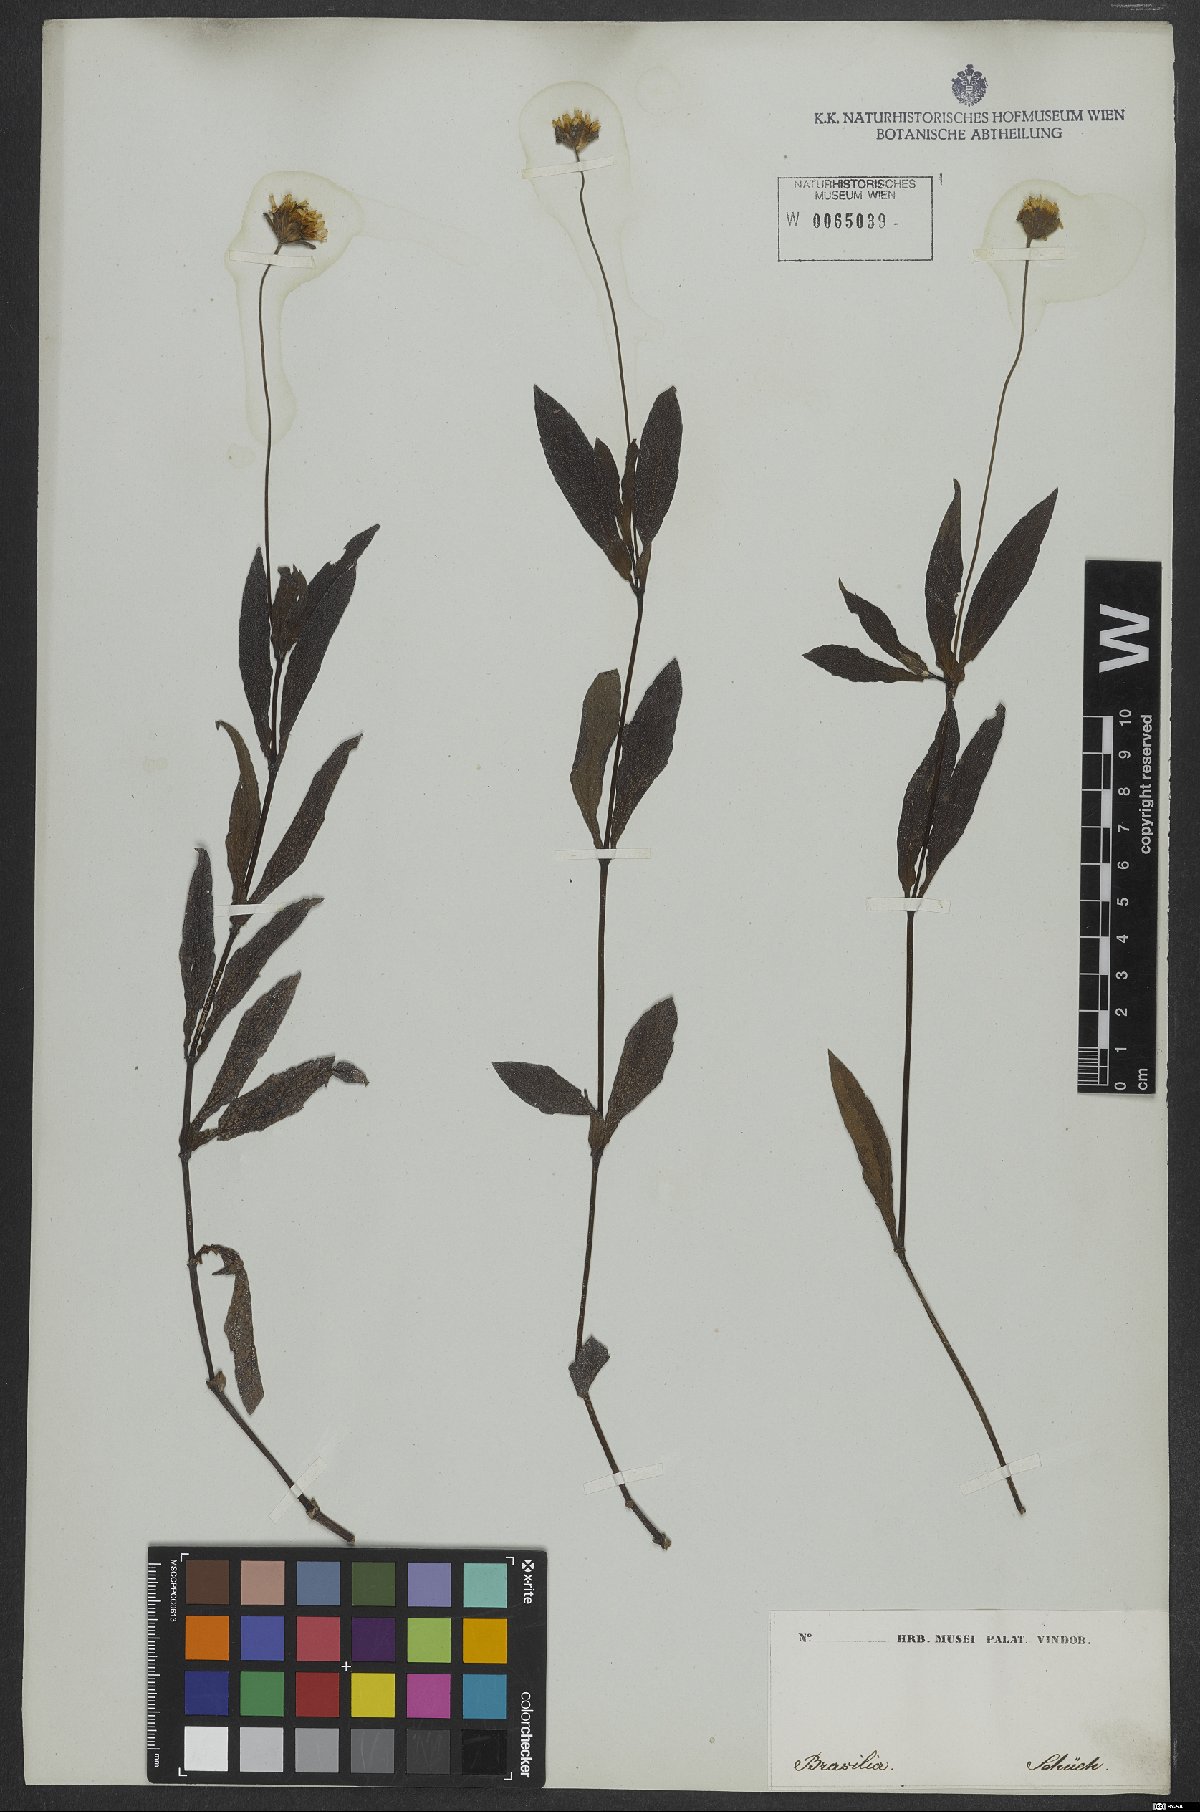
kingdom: Plantae
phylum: Tracheophyta
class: Magnoliopsida
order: Asterales
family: Asteraceae
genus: Sphagneticola
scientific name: Sphagneticola trilobata
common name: Bay biscayne creeping-oxeye
